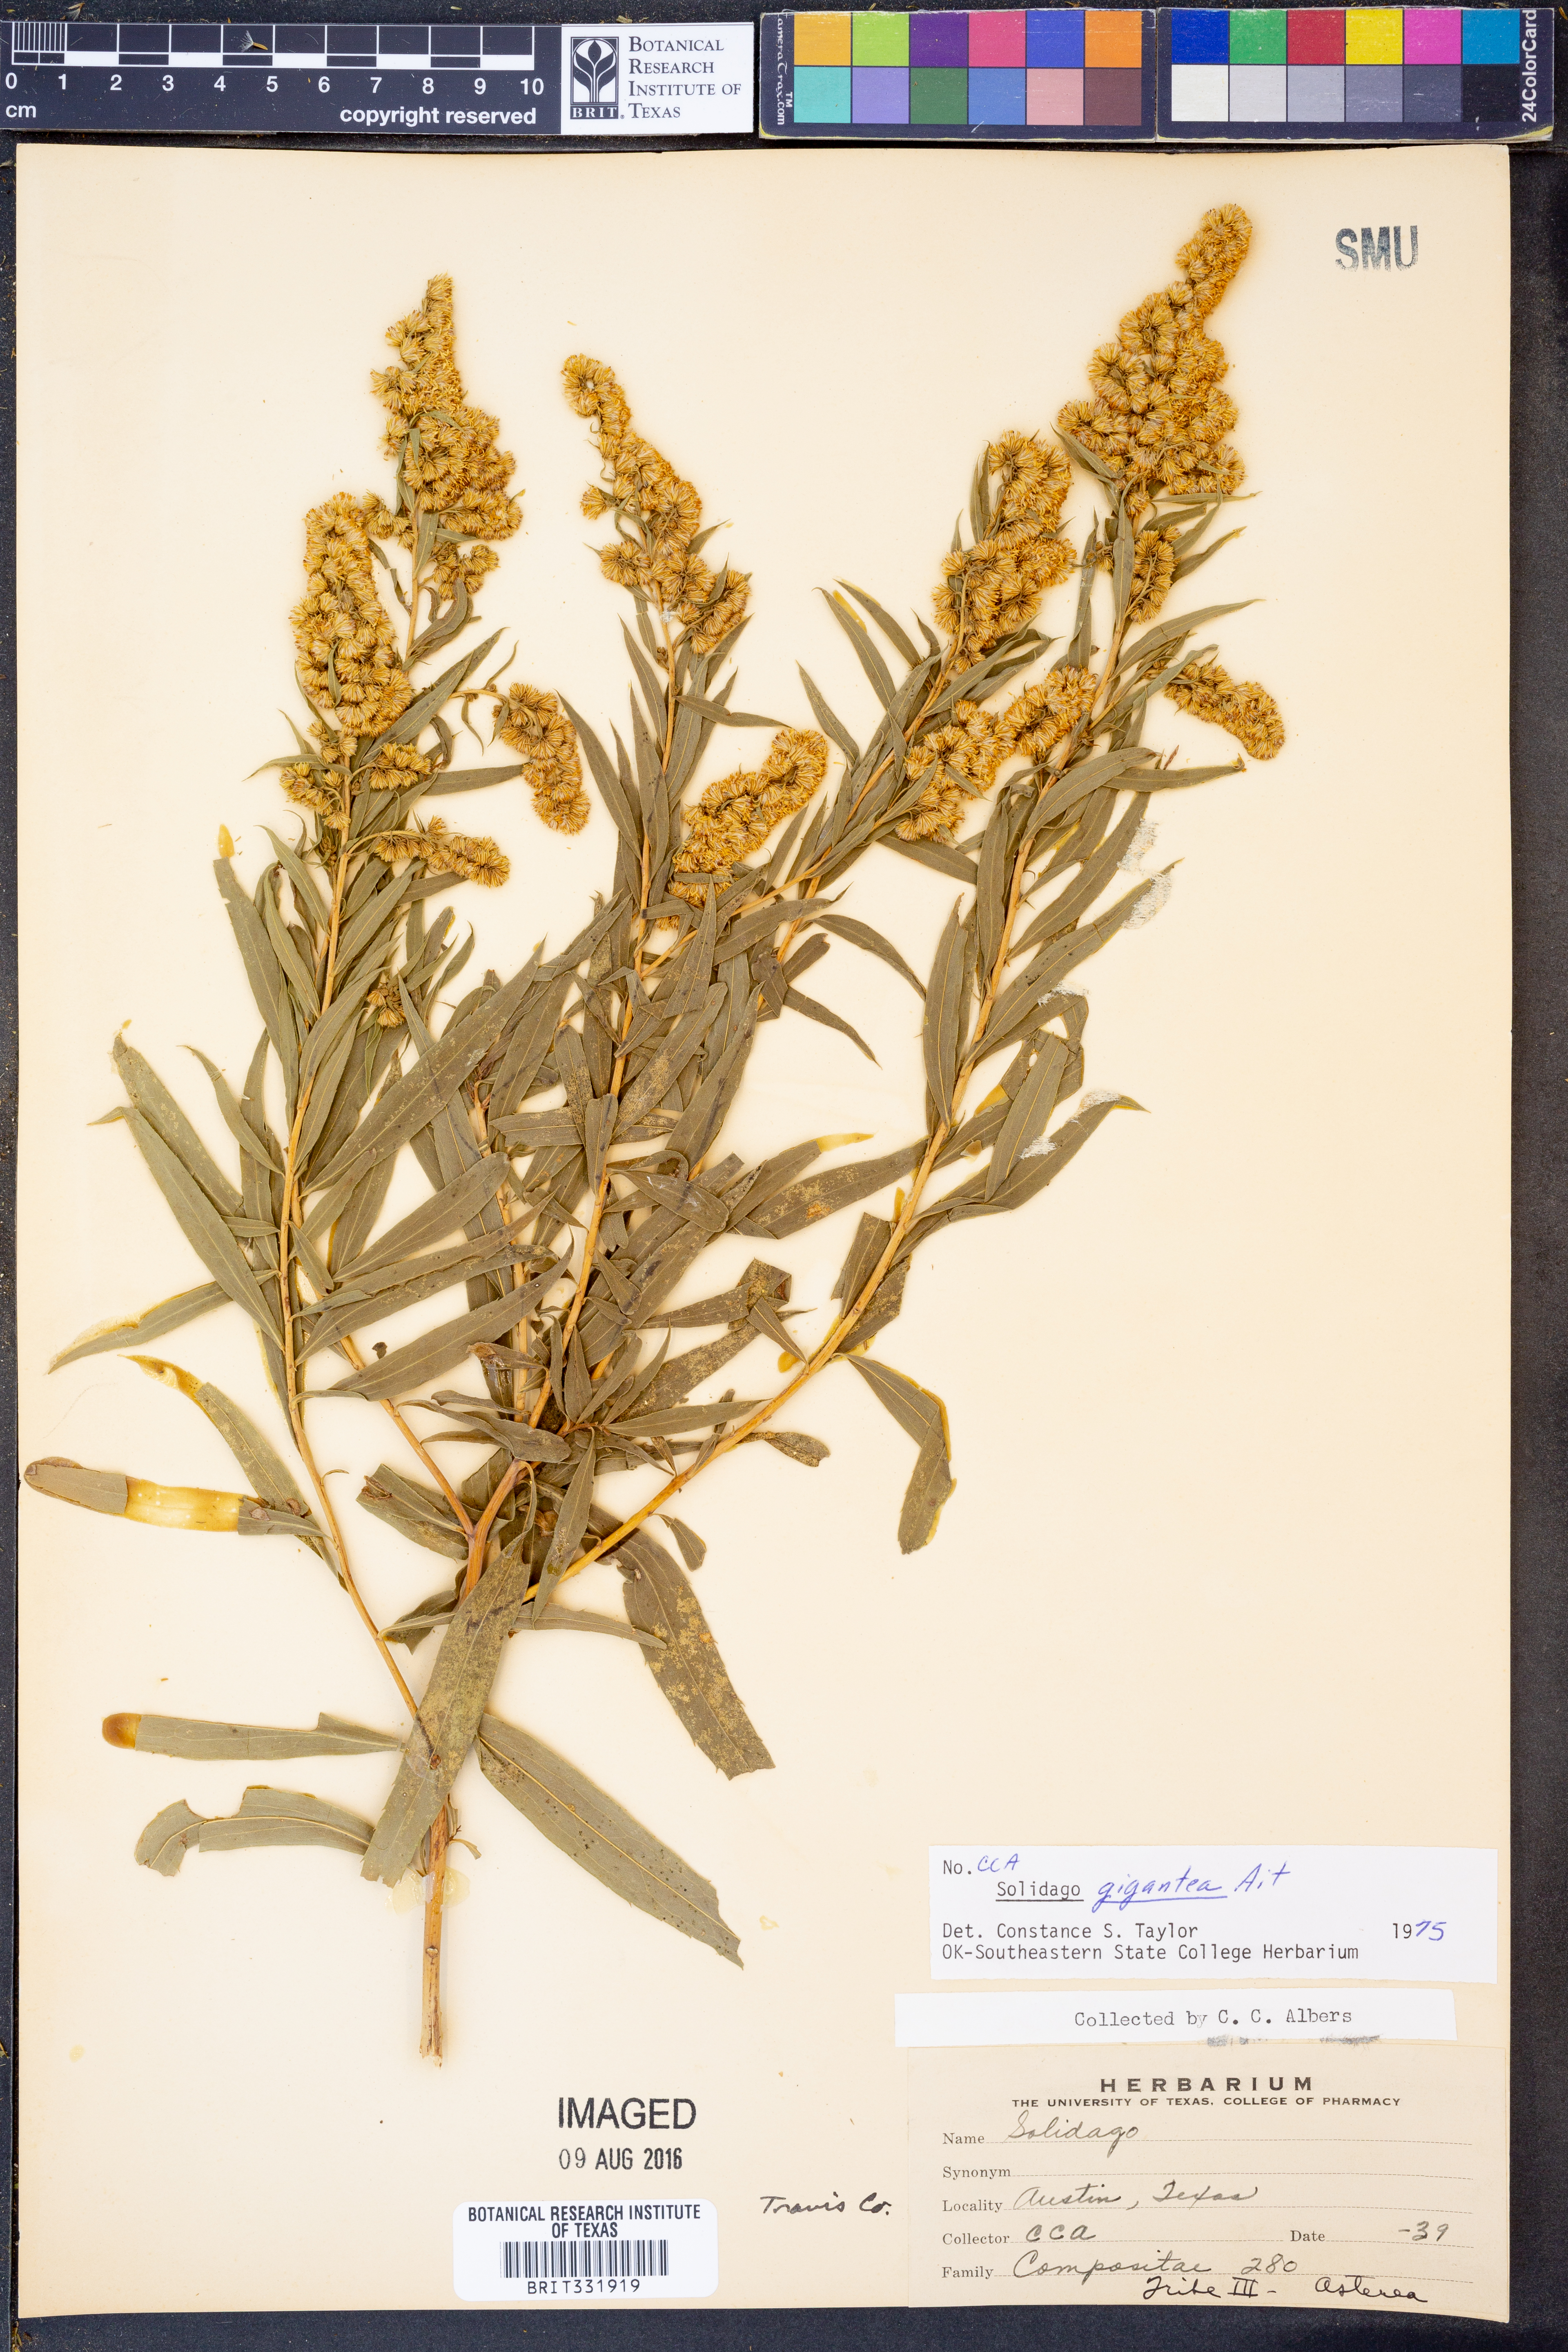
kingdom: Plantae
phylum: Tracheophyta
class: Magnoliopsida
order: Asterales
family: Asteraceae
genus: Solidago
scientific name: Solidago gigantea
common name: Giant goldenrod
